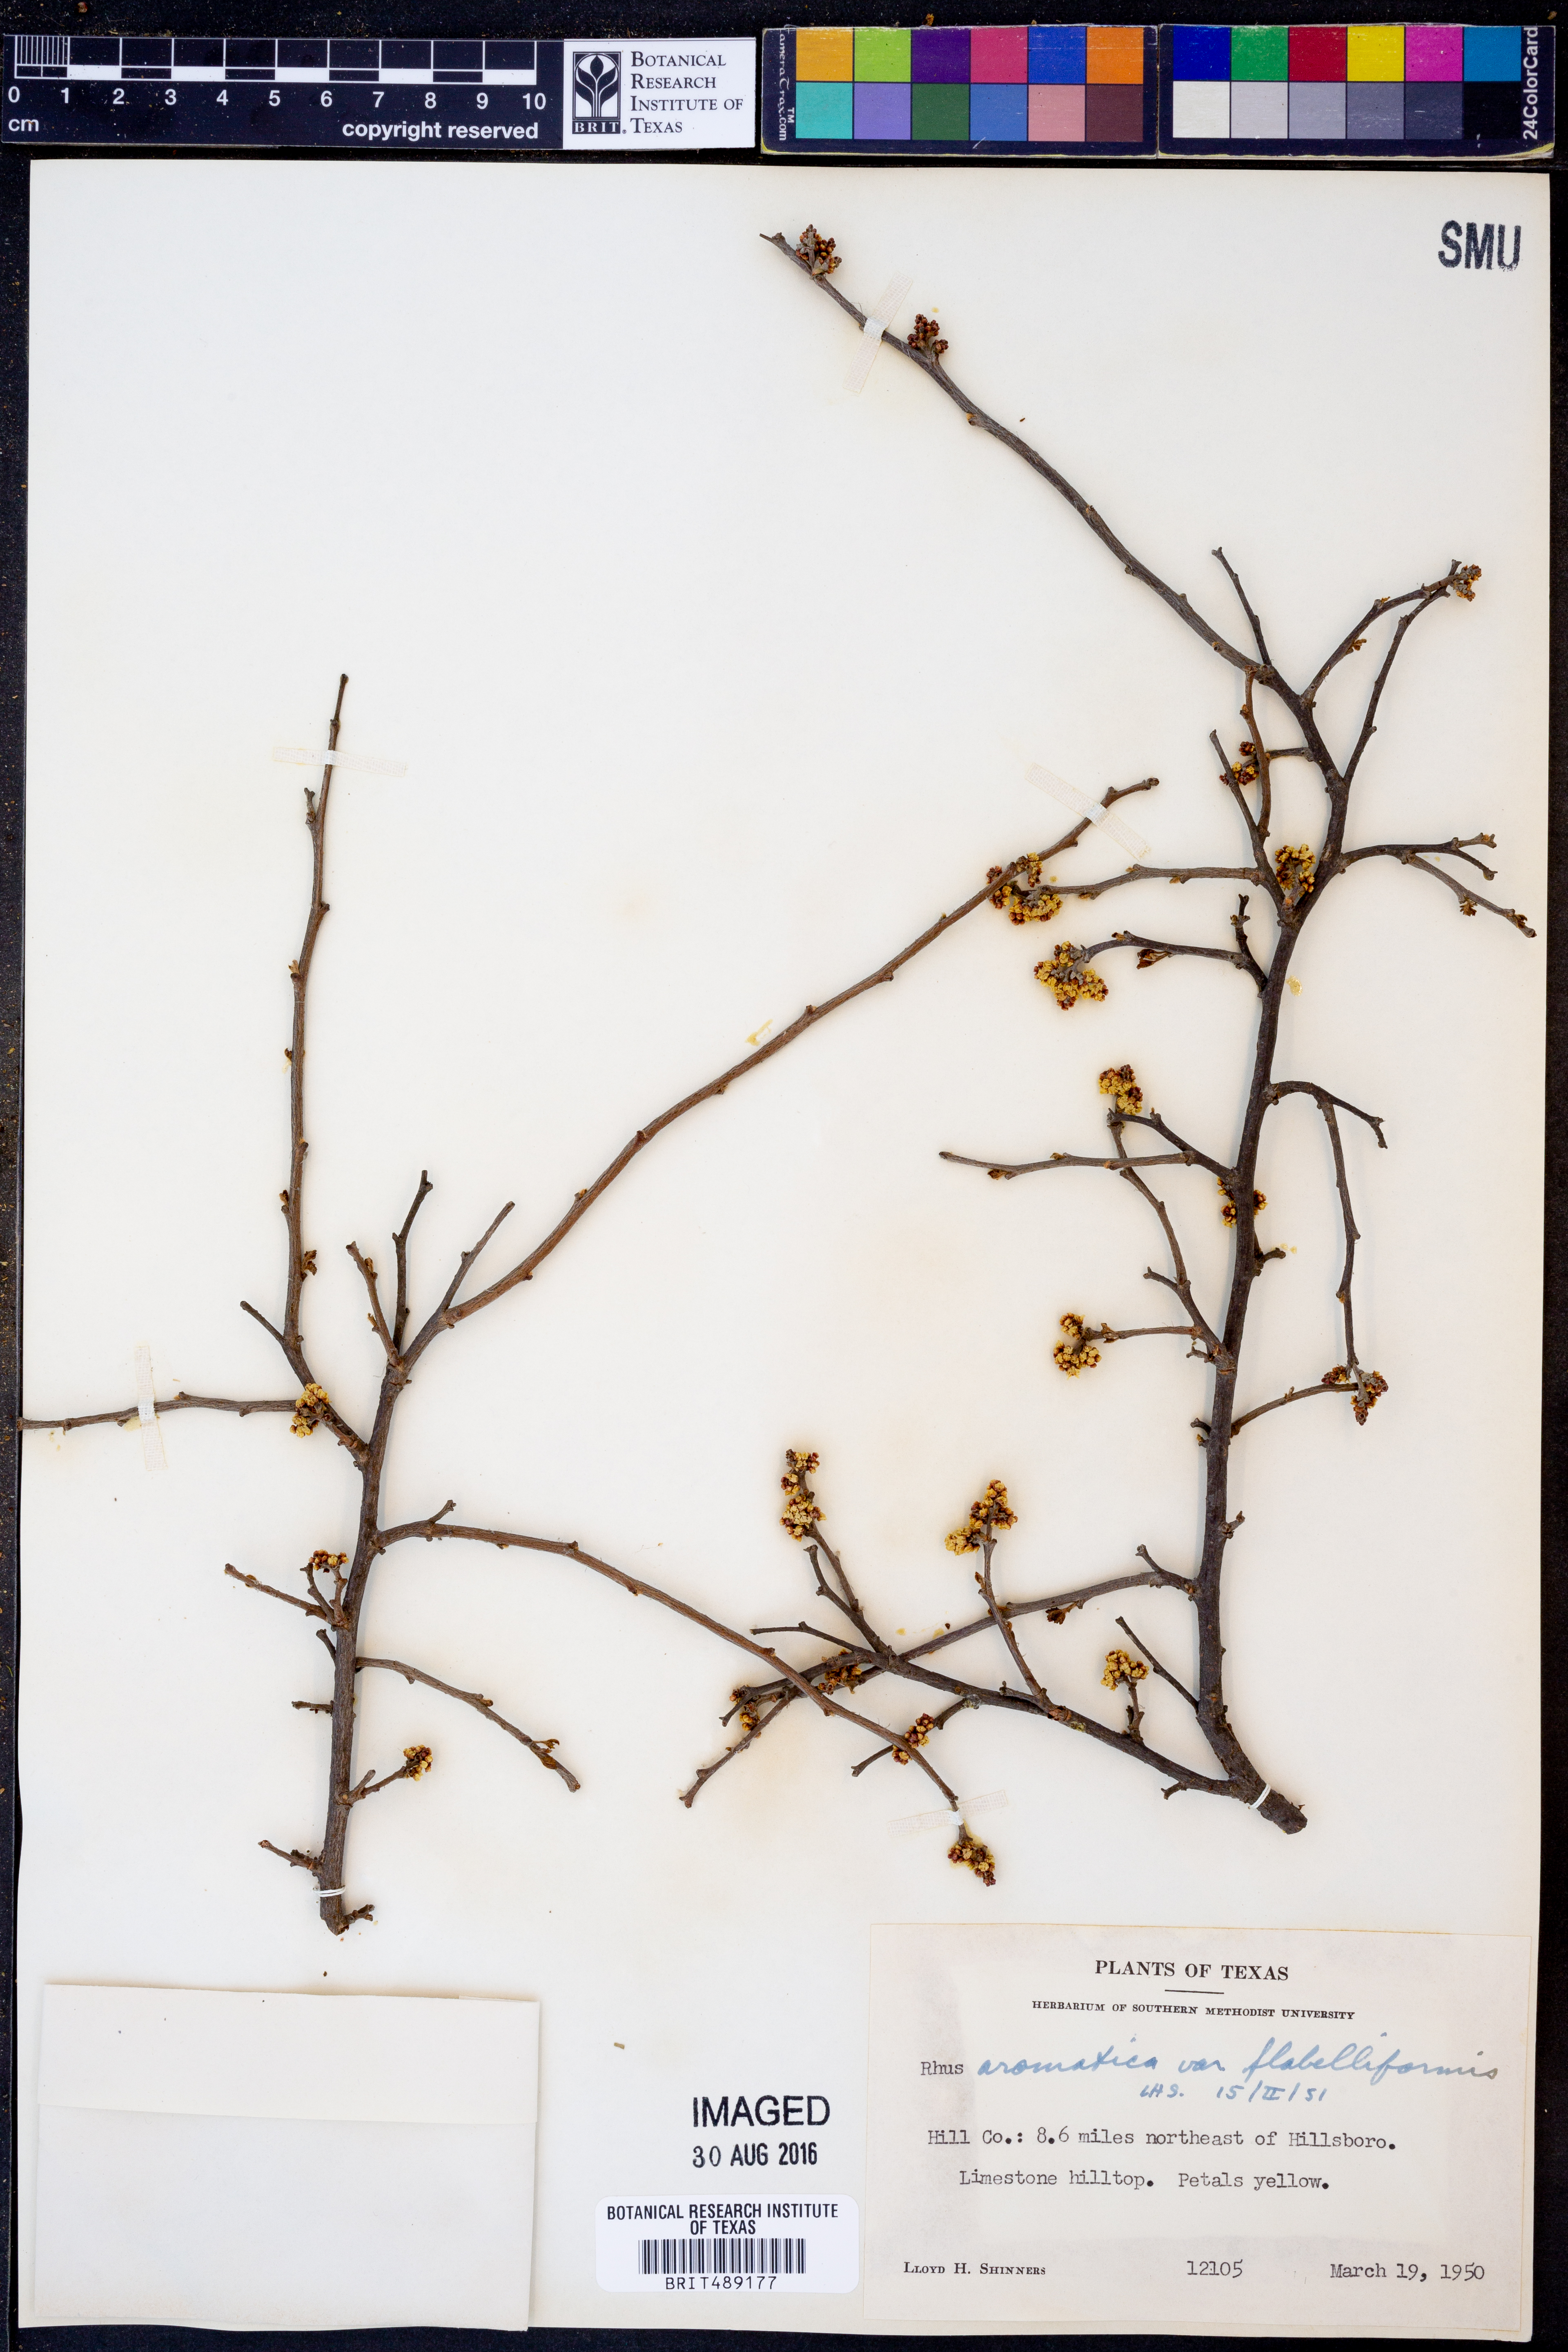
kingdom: Plantae
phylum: Tracheophyta
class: Magnoliopsida
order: Sapindales
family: Anacardiaceae
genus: Rhus
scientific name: Rhus trilobata
